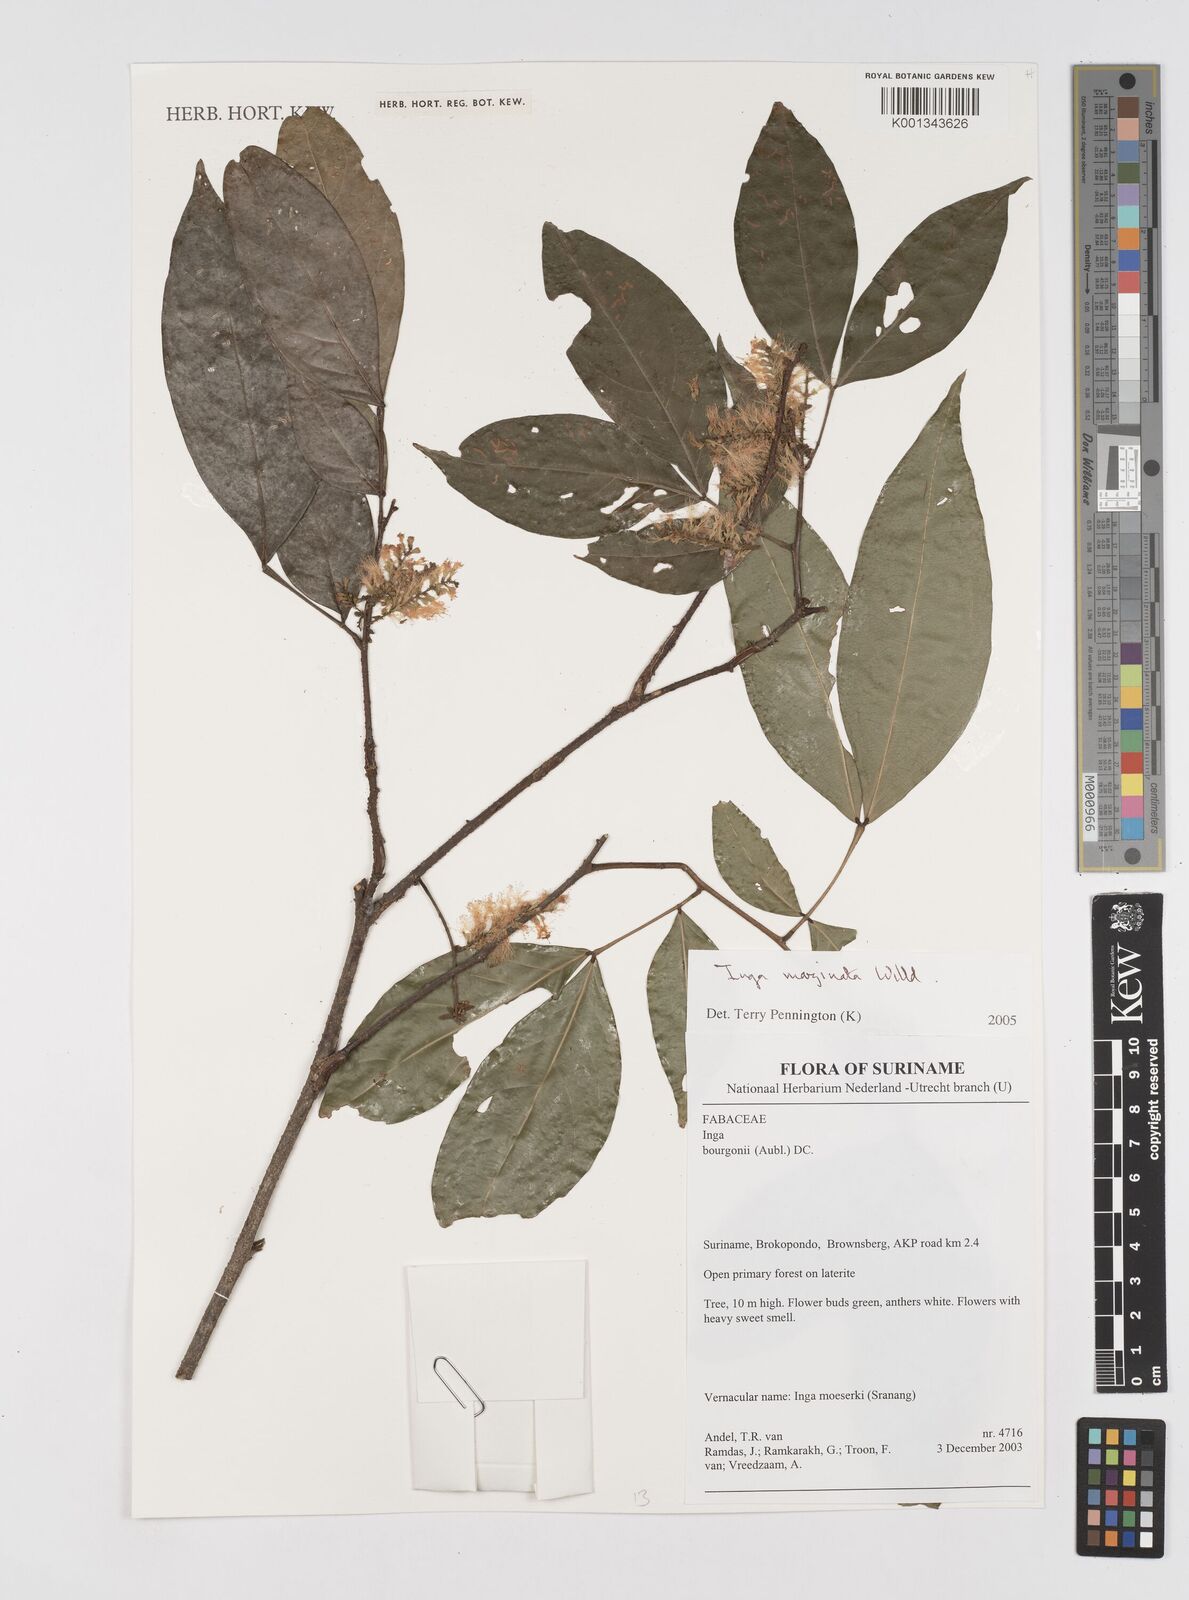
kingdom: Plantae
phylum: Tracheophyta
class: Magnoliopsida
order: Fabales
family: Fabaceae
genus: Inga
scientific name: Inga marginata
